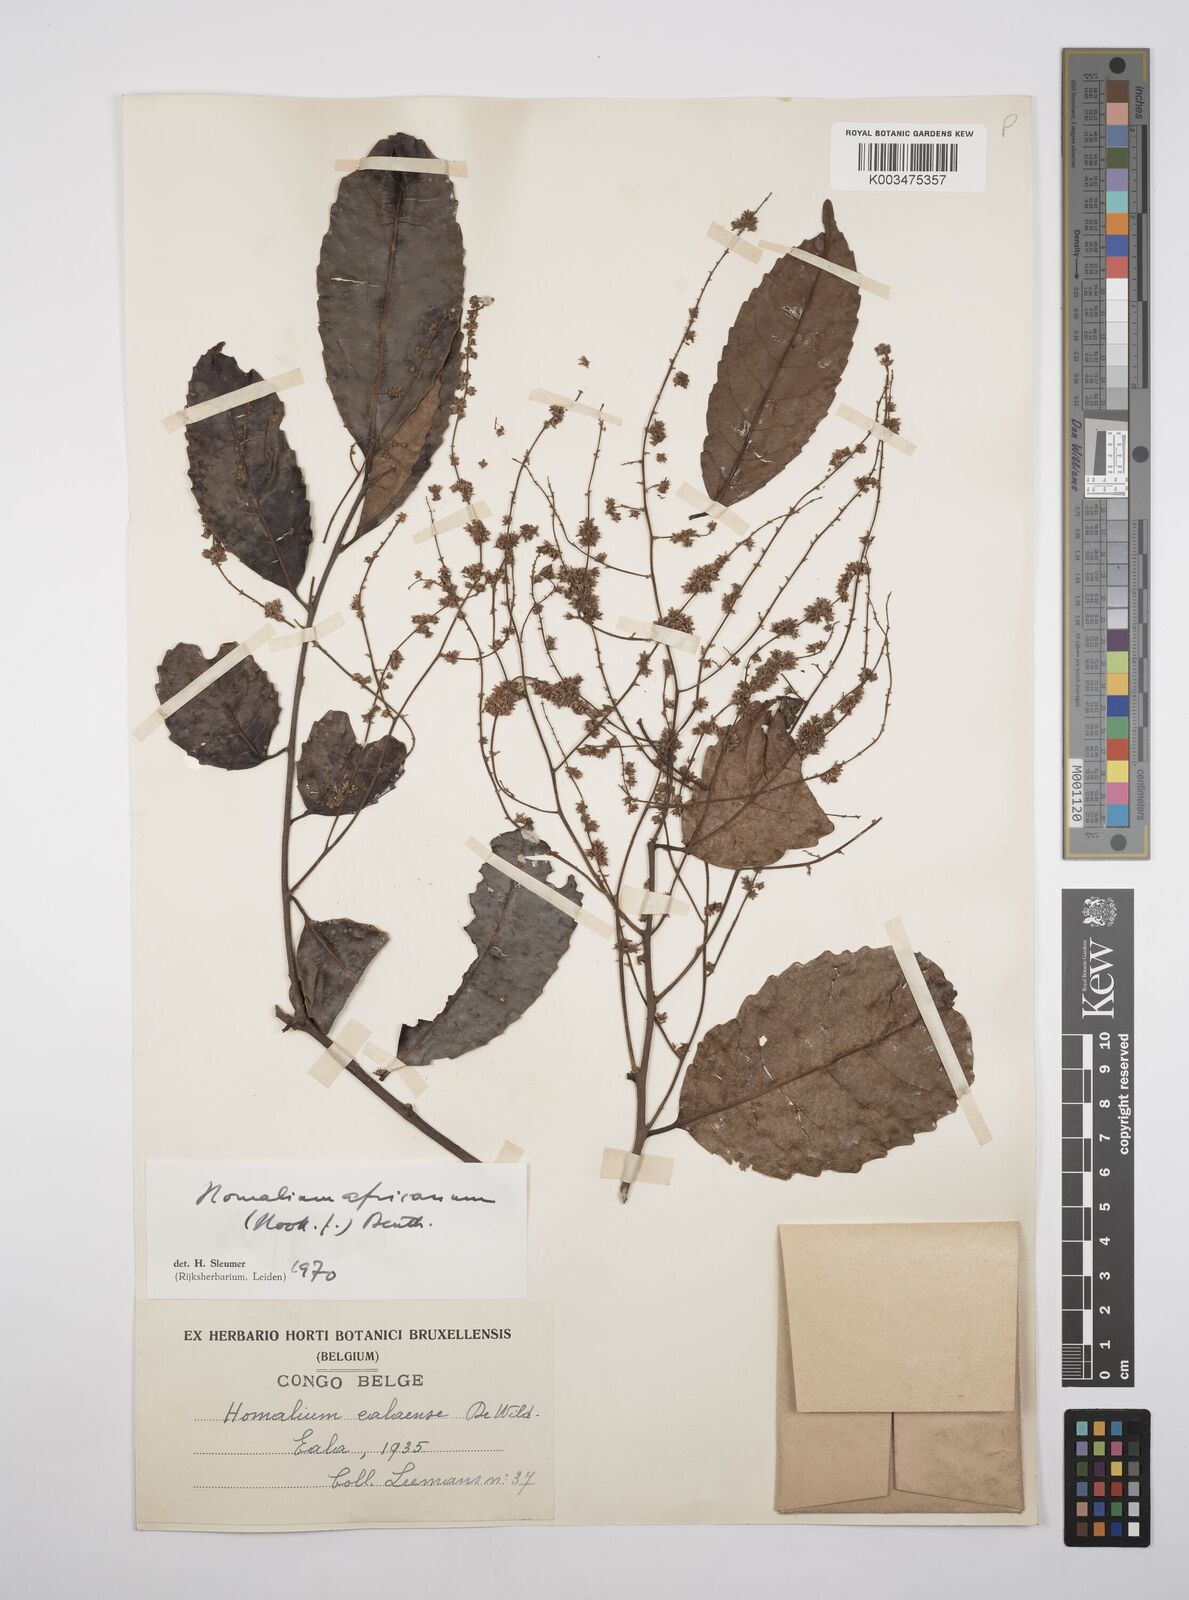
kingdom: Plantae
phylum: Tracheophyta
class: Magnoliopsida
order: Malpighiales
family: Salicaceae
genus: Homalium
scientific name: Homalium africanum
